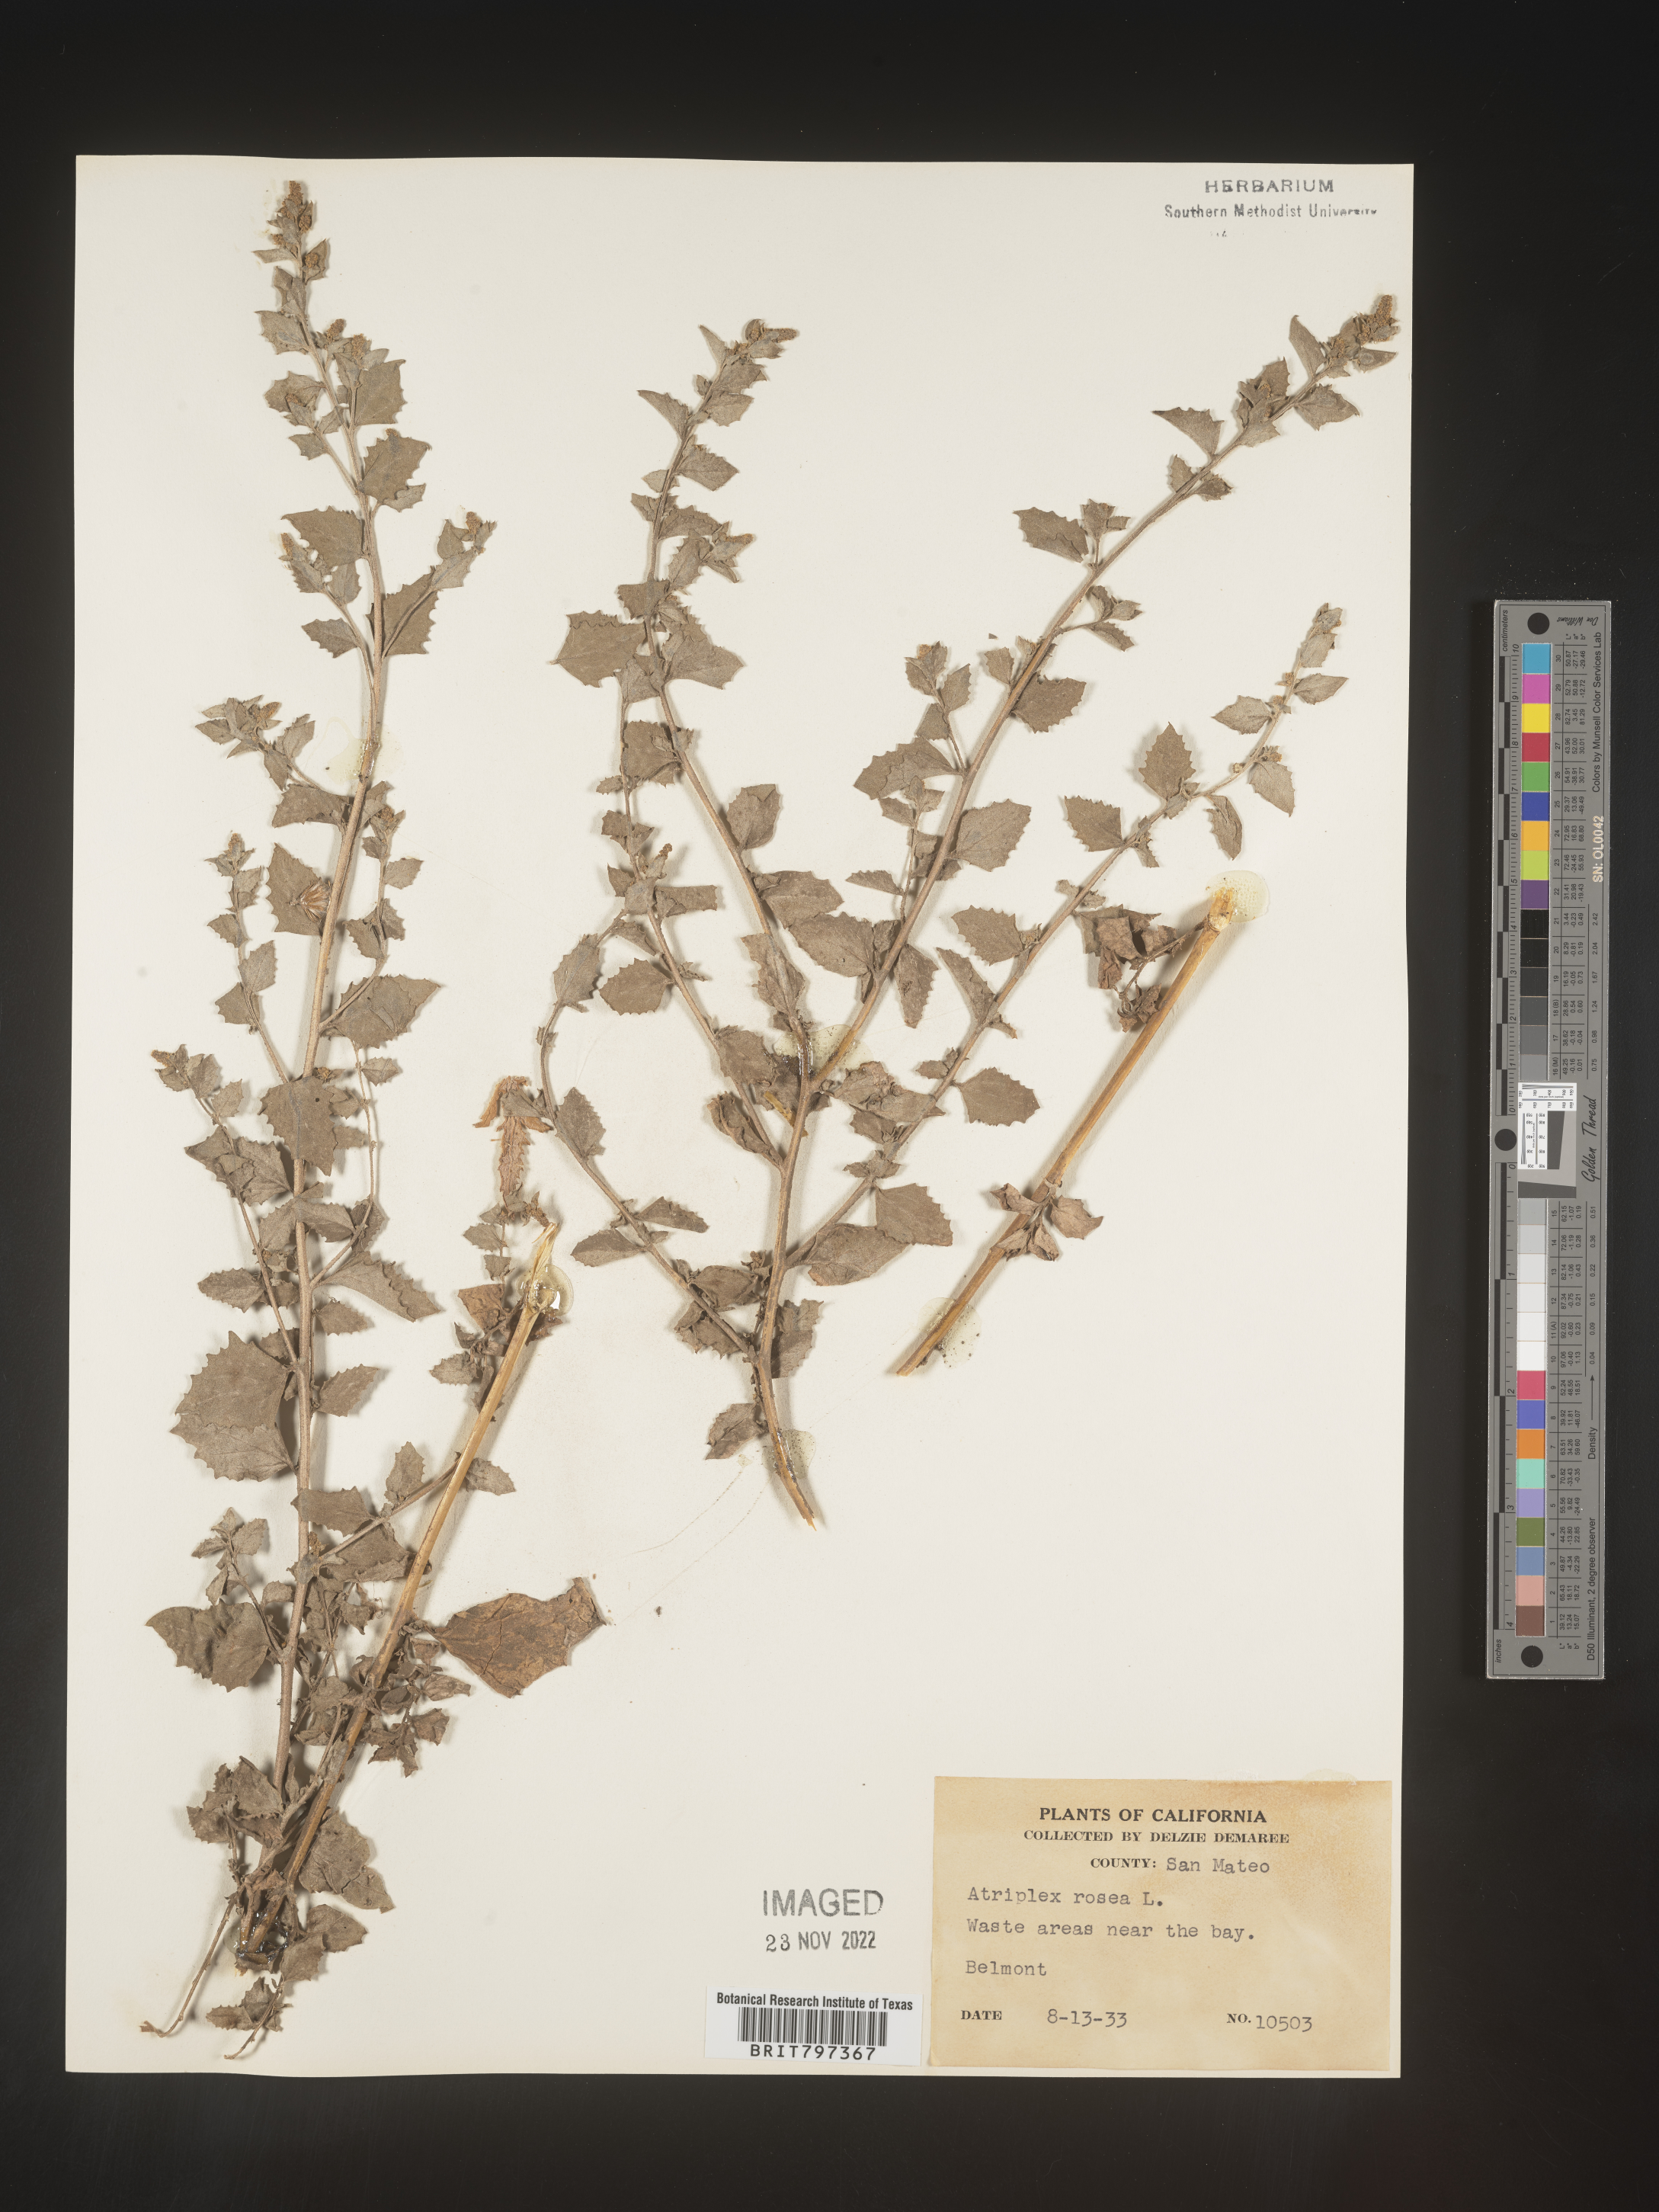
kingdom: Plantae
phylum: Tracheophyta
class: Magnoliopsida
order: Caryophyllales
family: Amaranthaceae
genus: Atriplex
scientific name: Atriplex rosea
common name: Tumbling saltweed
